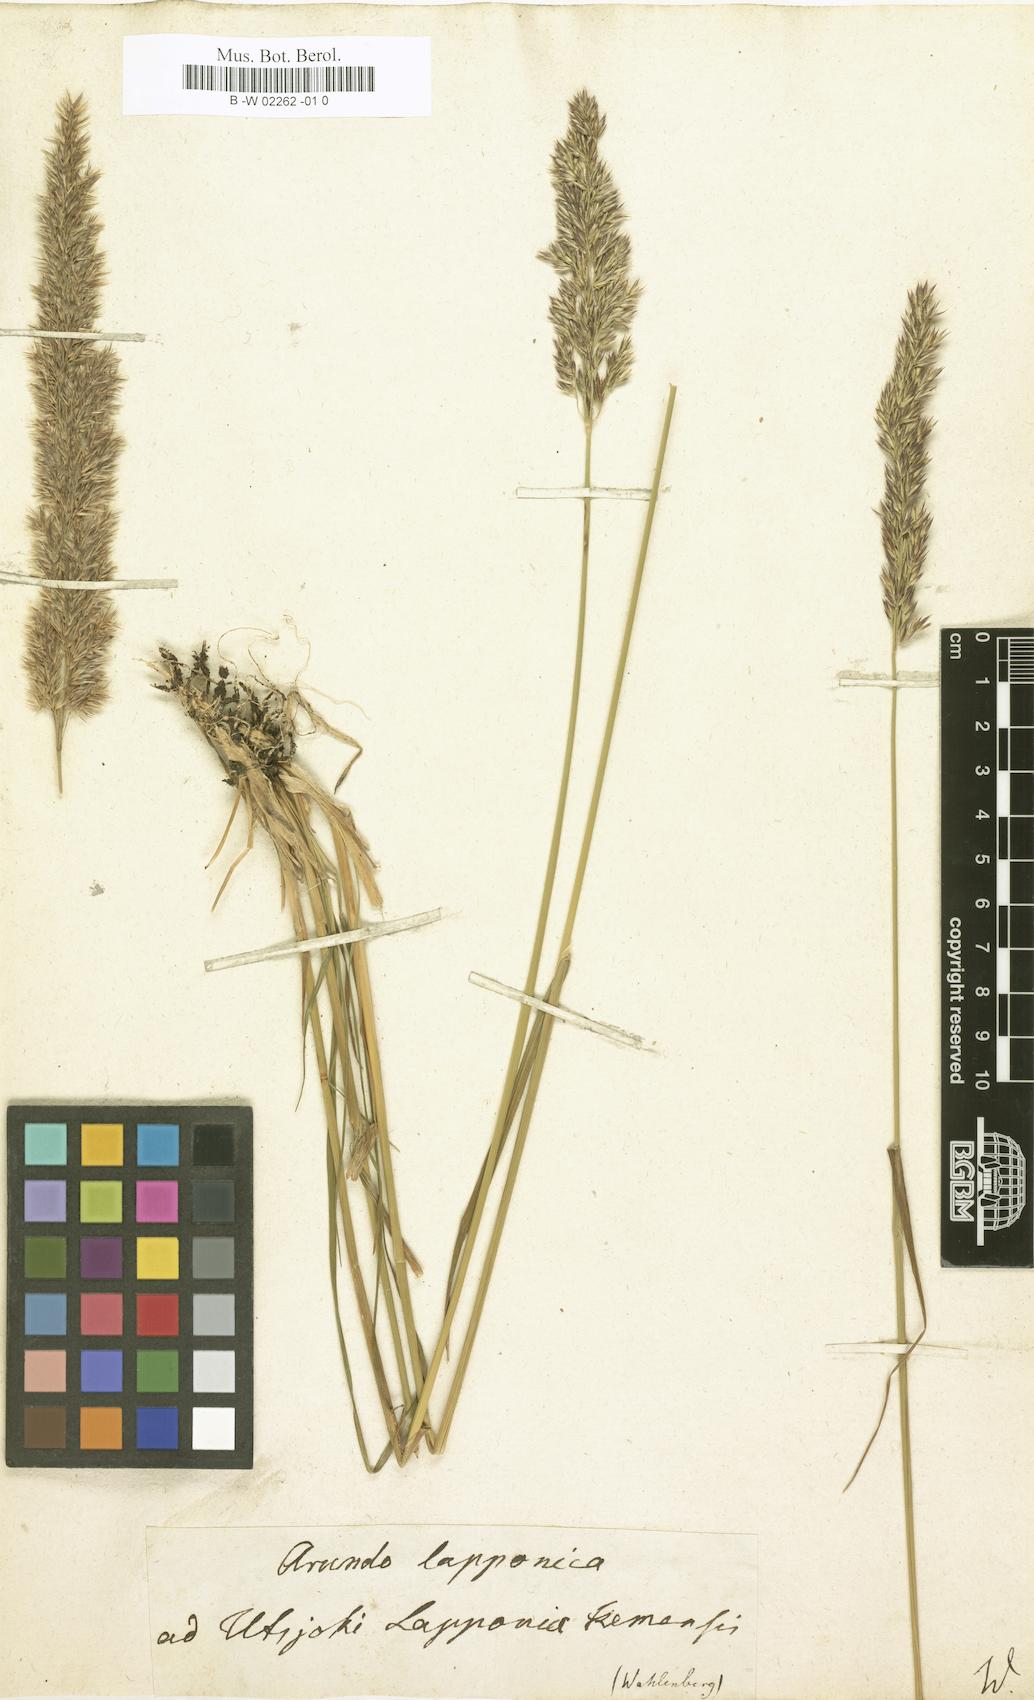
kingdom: Plantae
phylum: Tracheophyta
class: Liliopsida
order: Poales
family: Poaceae
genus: Calamagrostis
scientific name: Calamagrostis lapponica
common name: Lapland reedgrass
